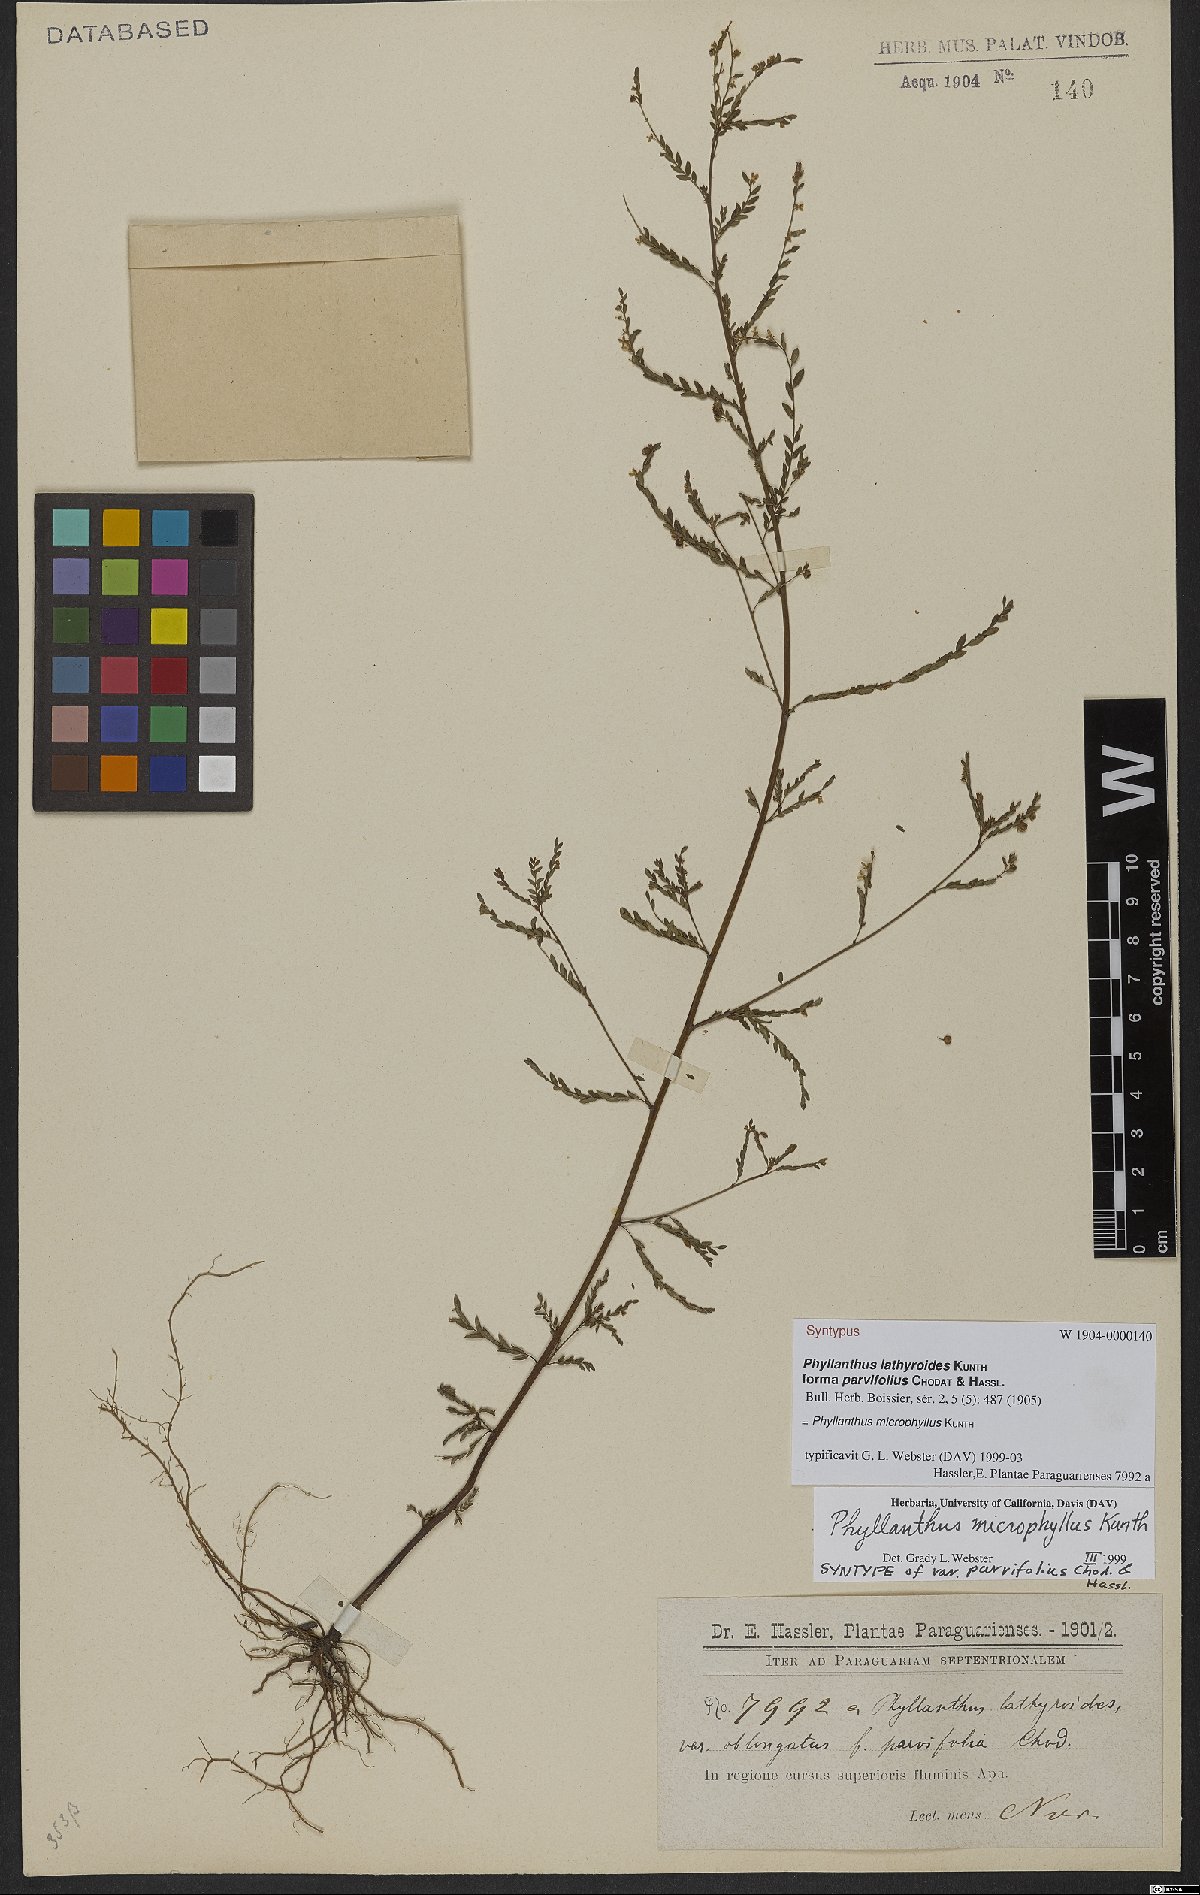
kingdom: Plantae
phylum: Tracheophyta
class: Magnoliopsida
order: Malpighiales
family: Phyllanthaceae
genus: Phyllanthus
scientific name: Phyllanthus microphyllus
